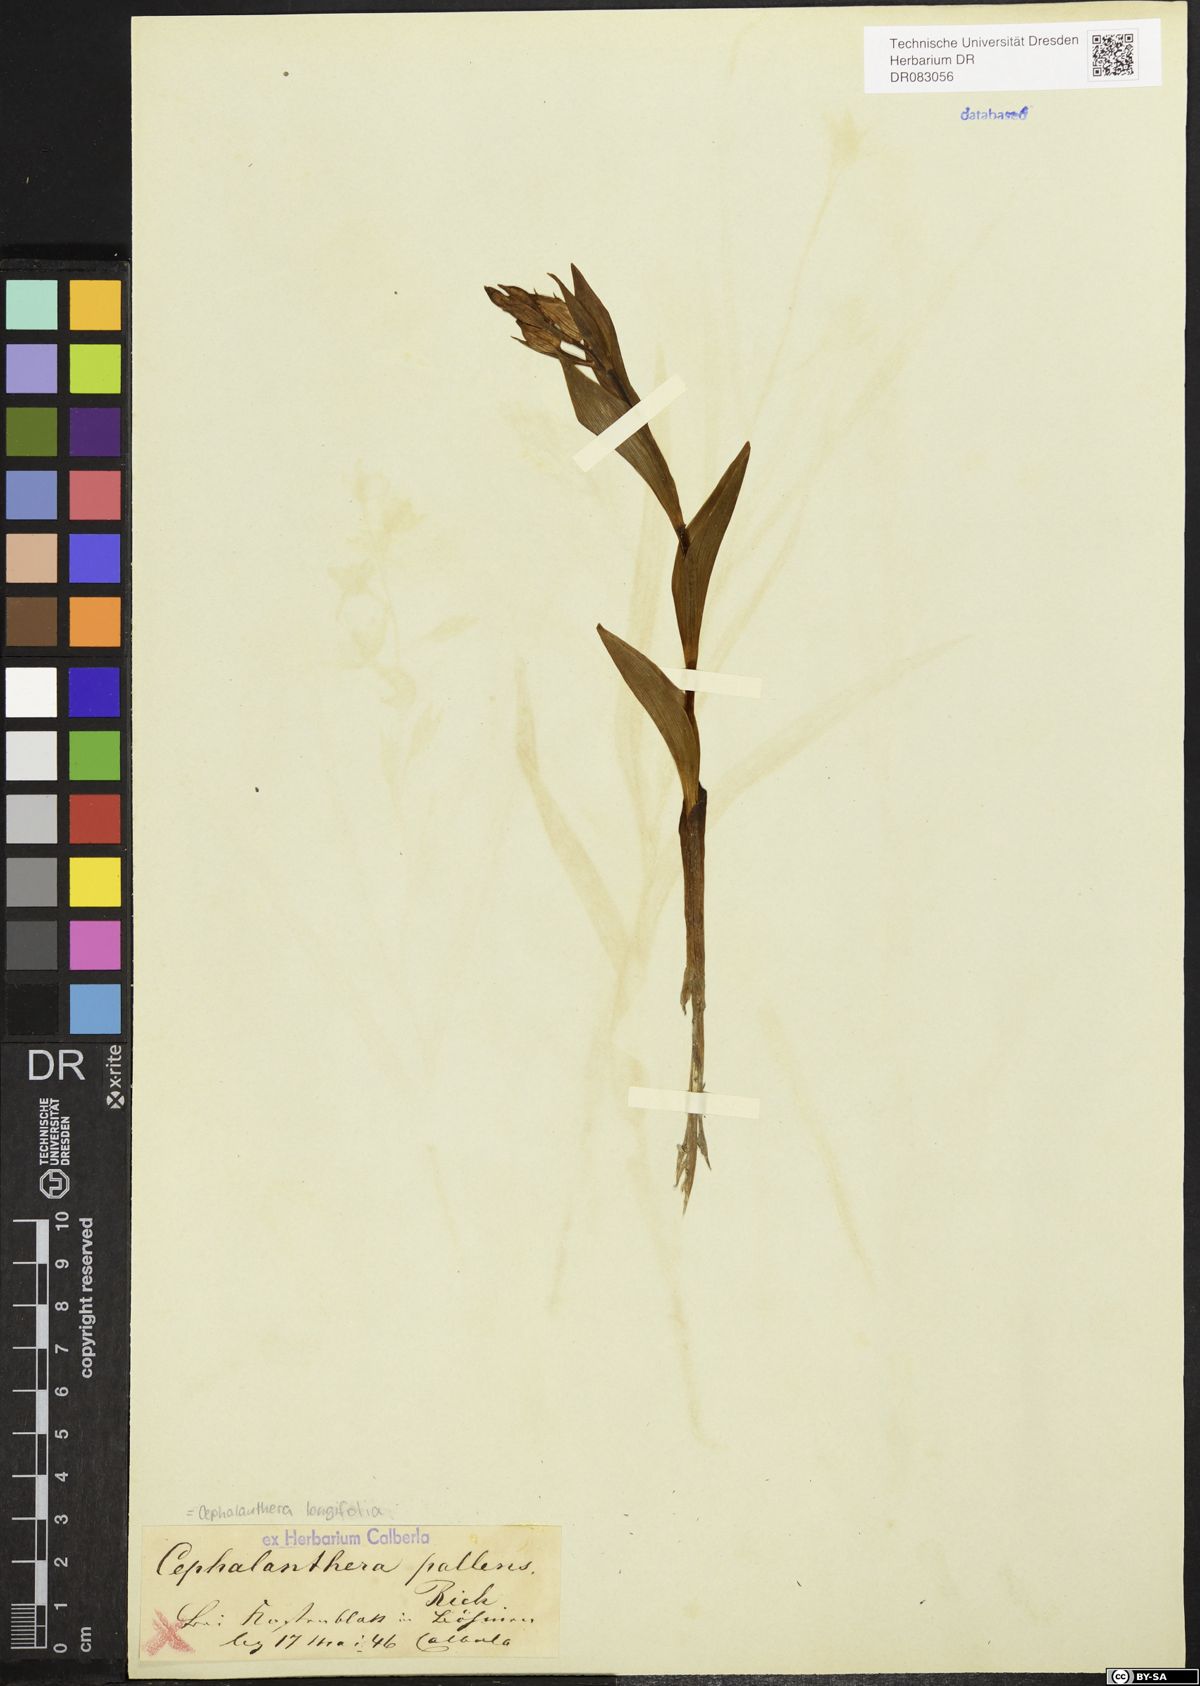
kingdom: Plantae
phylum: Tracheophyta
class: Liliopsida
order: Asparagales
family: Orchidaceae
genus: Cephalanthera
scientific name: Cephalanthera longifolia
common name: Narrow-leaved helleborine
